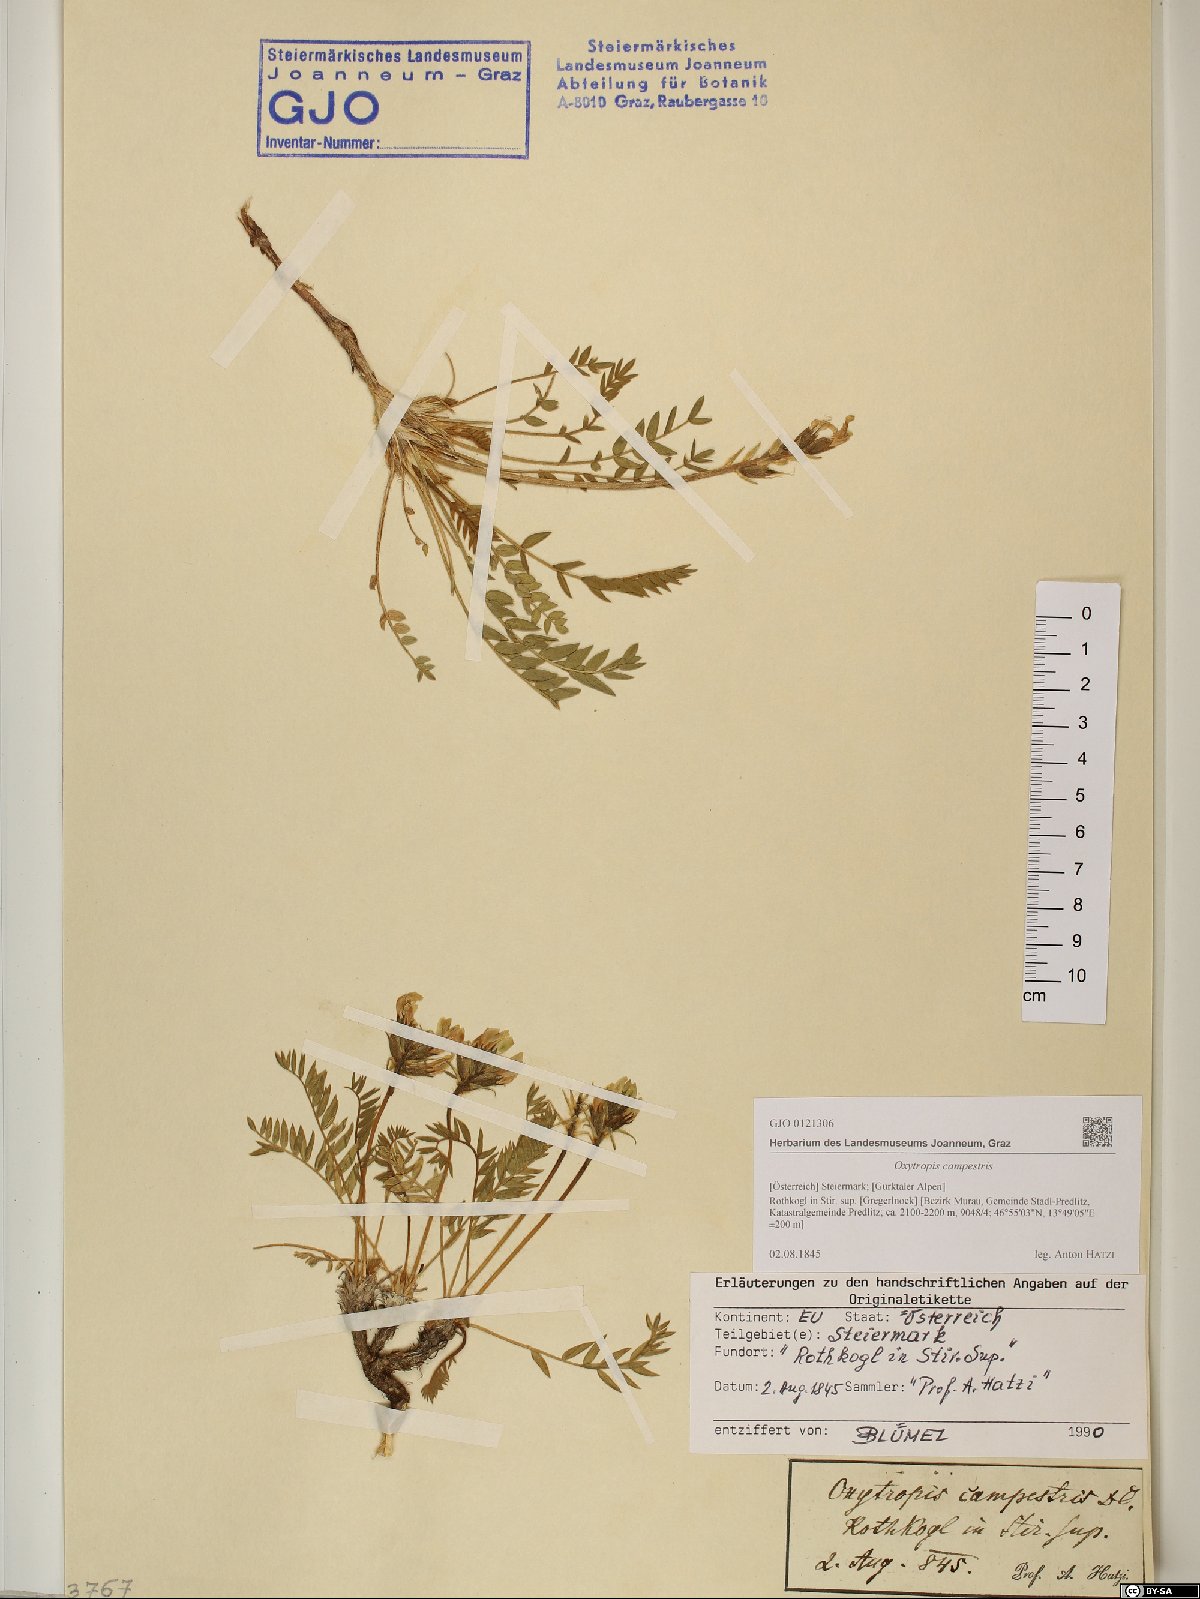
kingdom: Plantae
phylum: Tracheophyta
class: Magnoliopsida
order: Fabales
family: Fabaceae
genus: Oxytropis
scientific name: Oxytropis campestris
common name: Field locoweed
